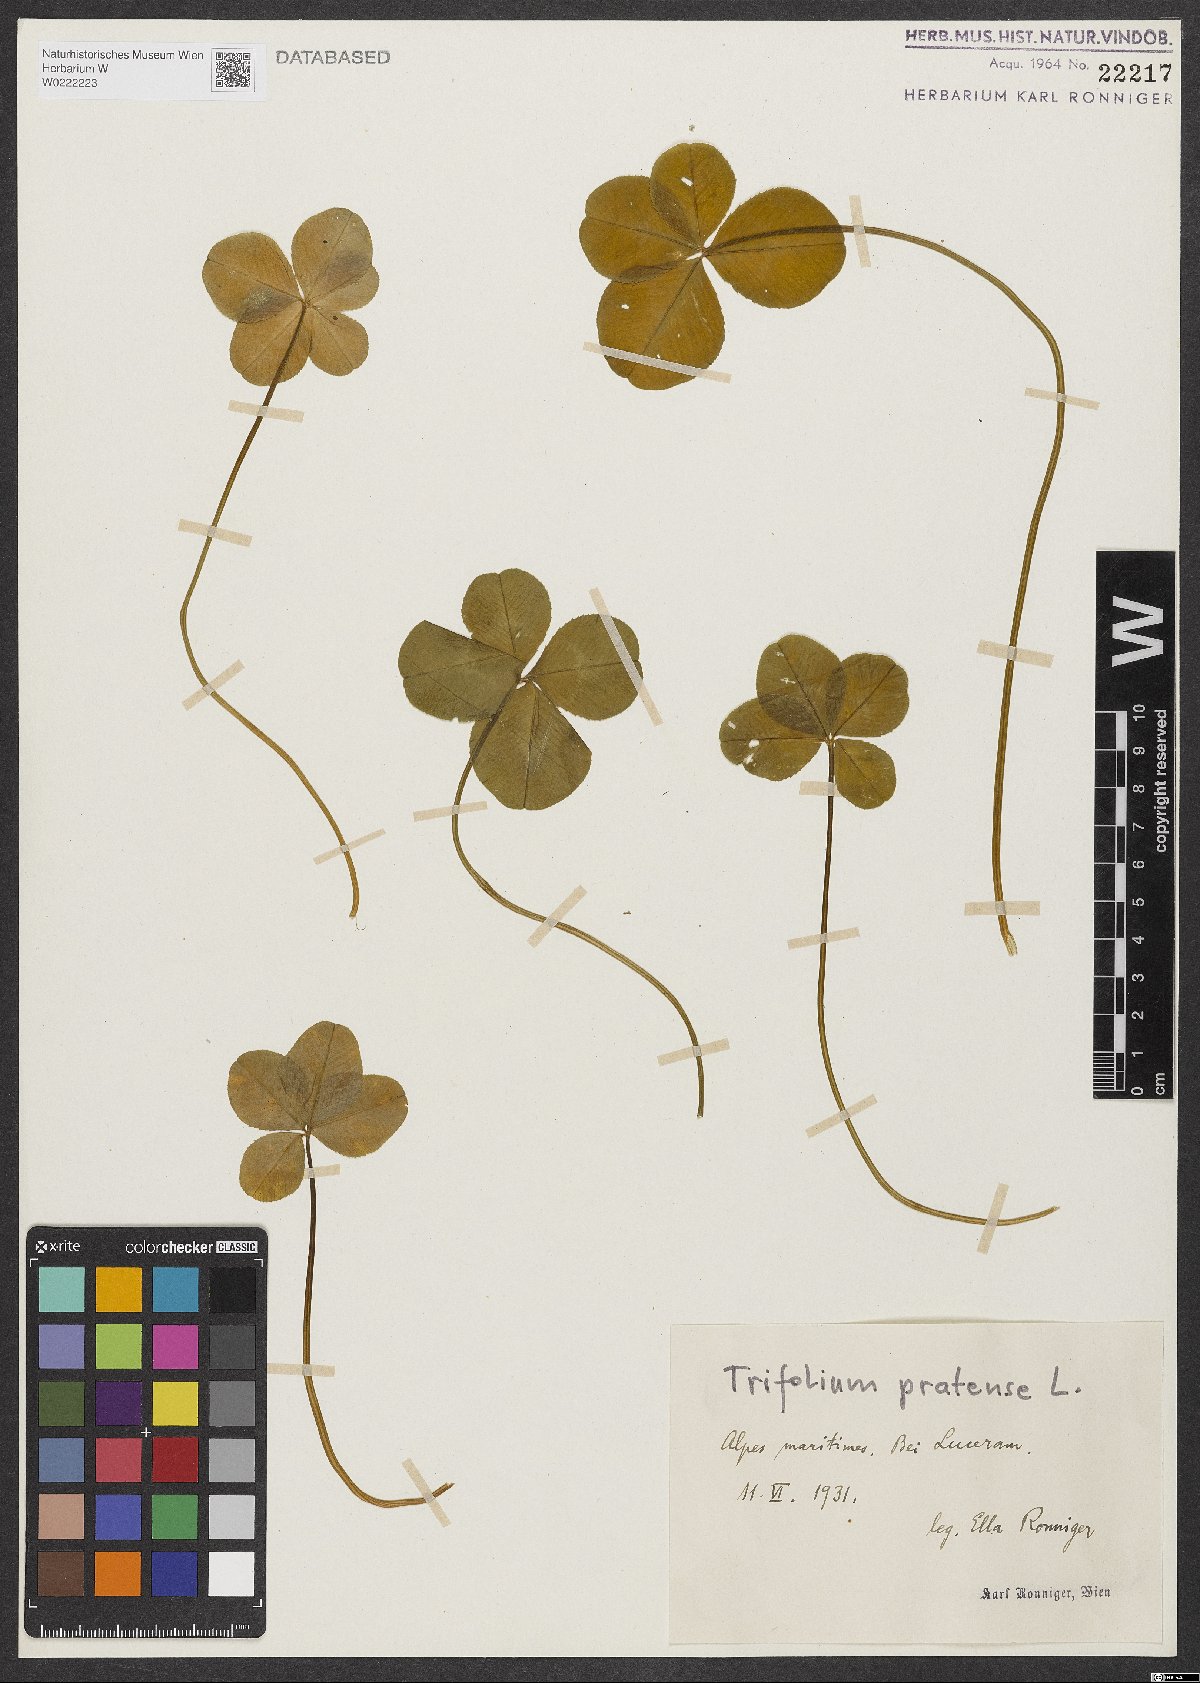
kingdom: Plantae
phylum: Tracheophyta
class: Magnoliopsida
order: Fabales
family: Fabaceae
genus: Trifolium
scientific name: Trifolium pratense
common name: Red clover
